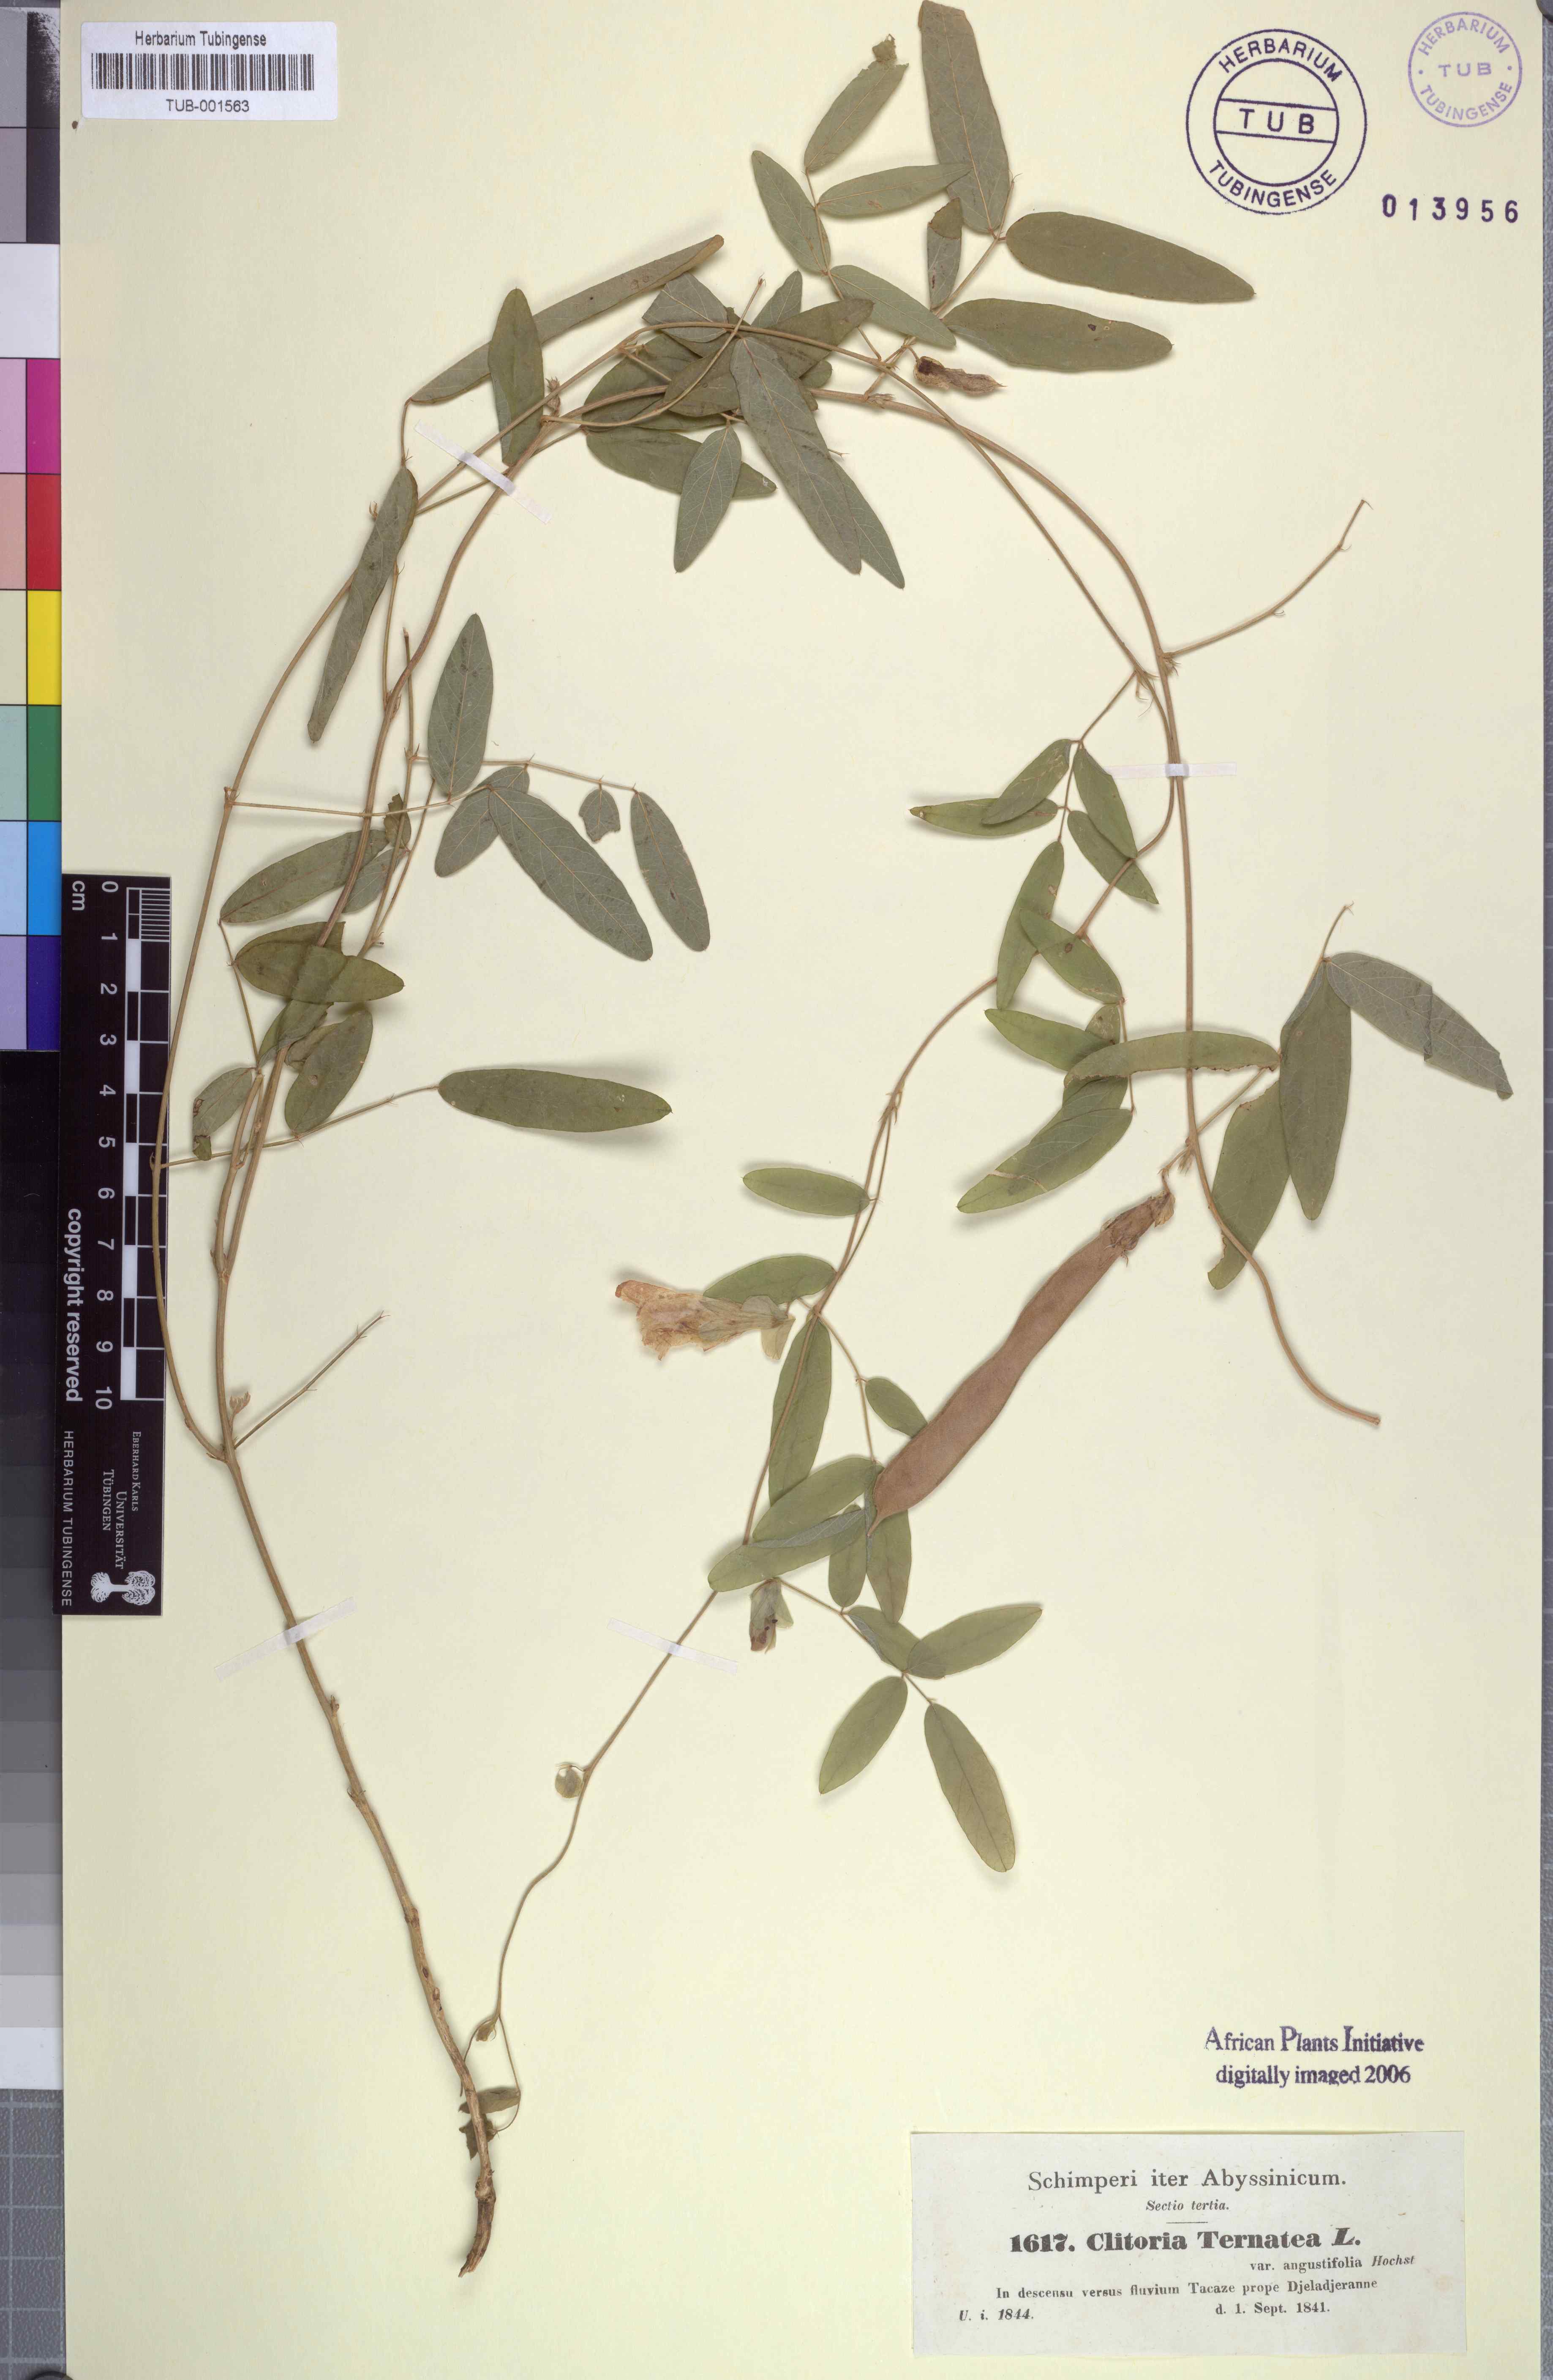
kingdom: Plantae
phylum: Tracheophyta
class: Magnoliopsida
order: Fabales
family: Fabaceae
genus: Clitoria
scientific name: Clitoria ternatea
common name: Asian pigeonwings
